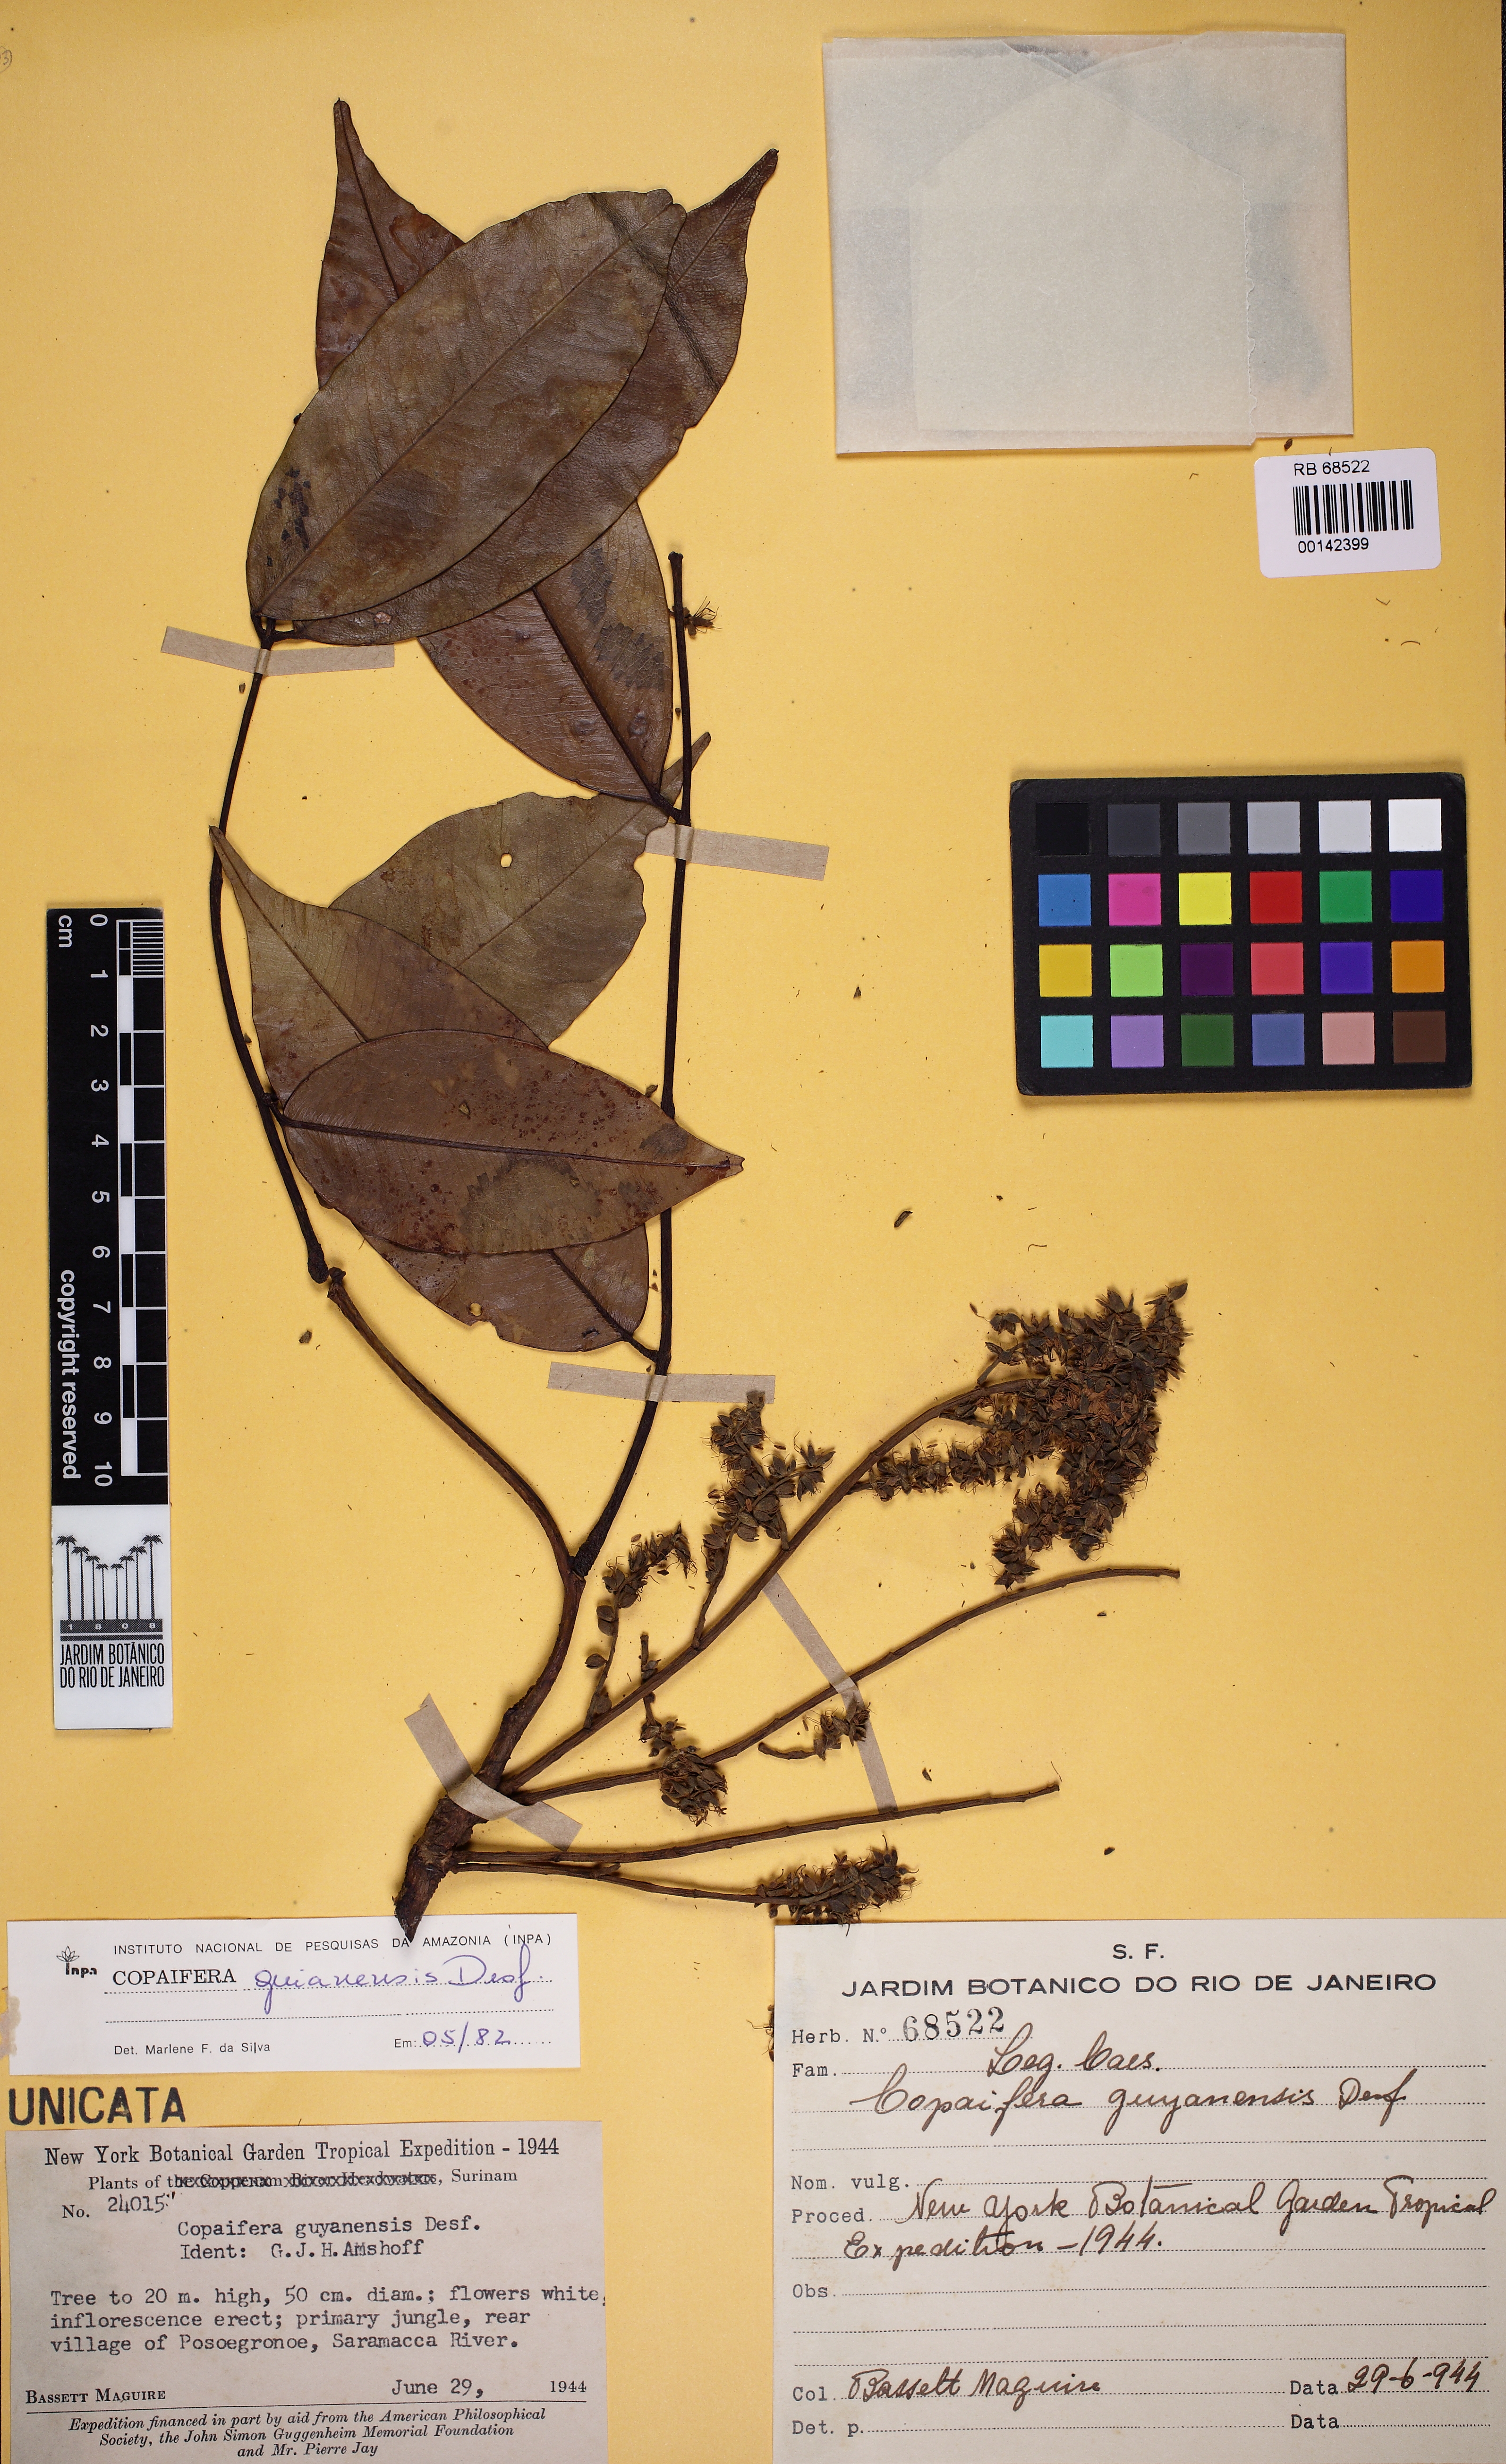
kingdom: Plantae
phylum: Tracheophyta
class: Magnoliopsida
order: Fabales
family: Fabaceae
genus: Copaifera
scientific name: Copaifera multijuga
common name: Brazilian copaiba
